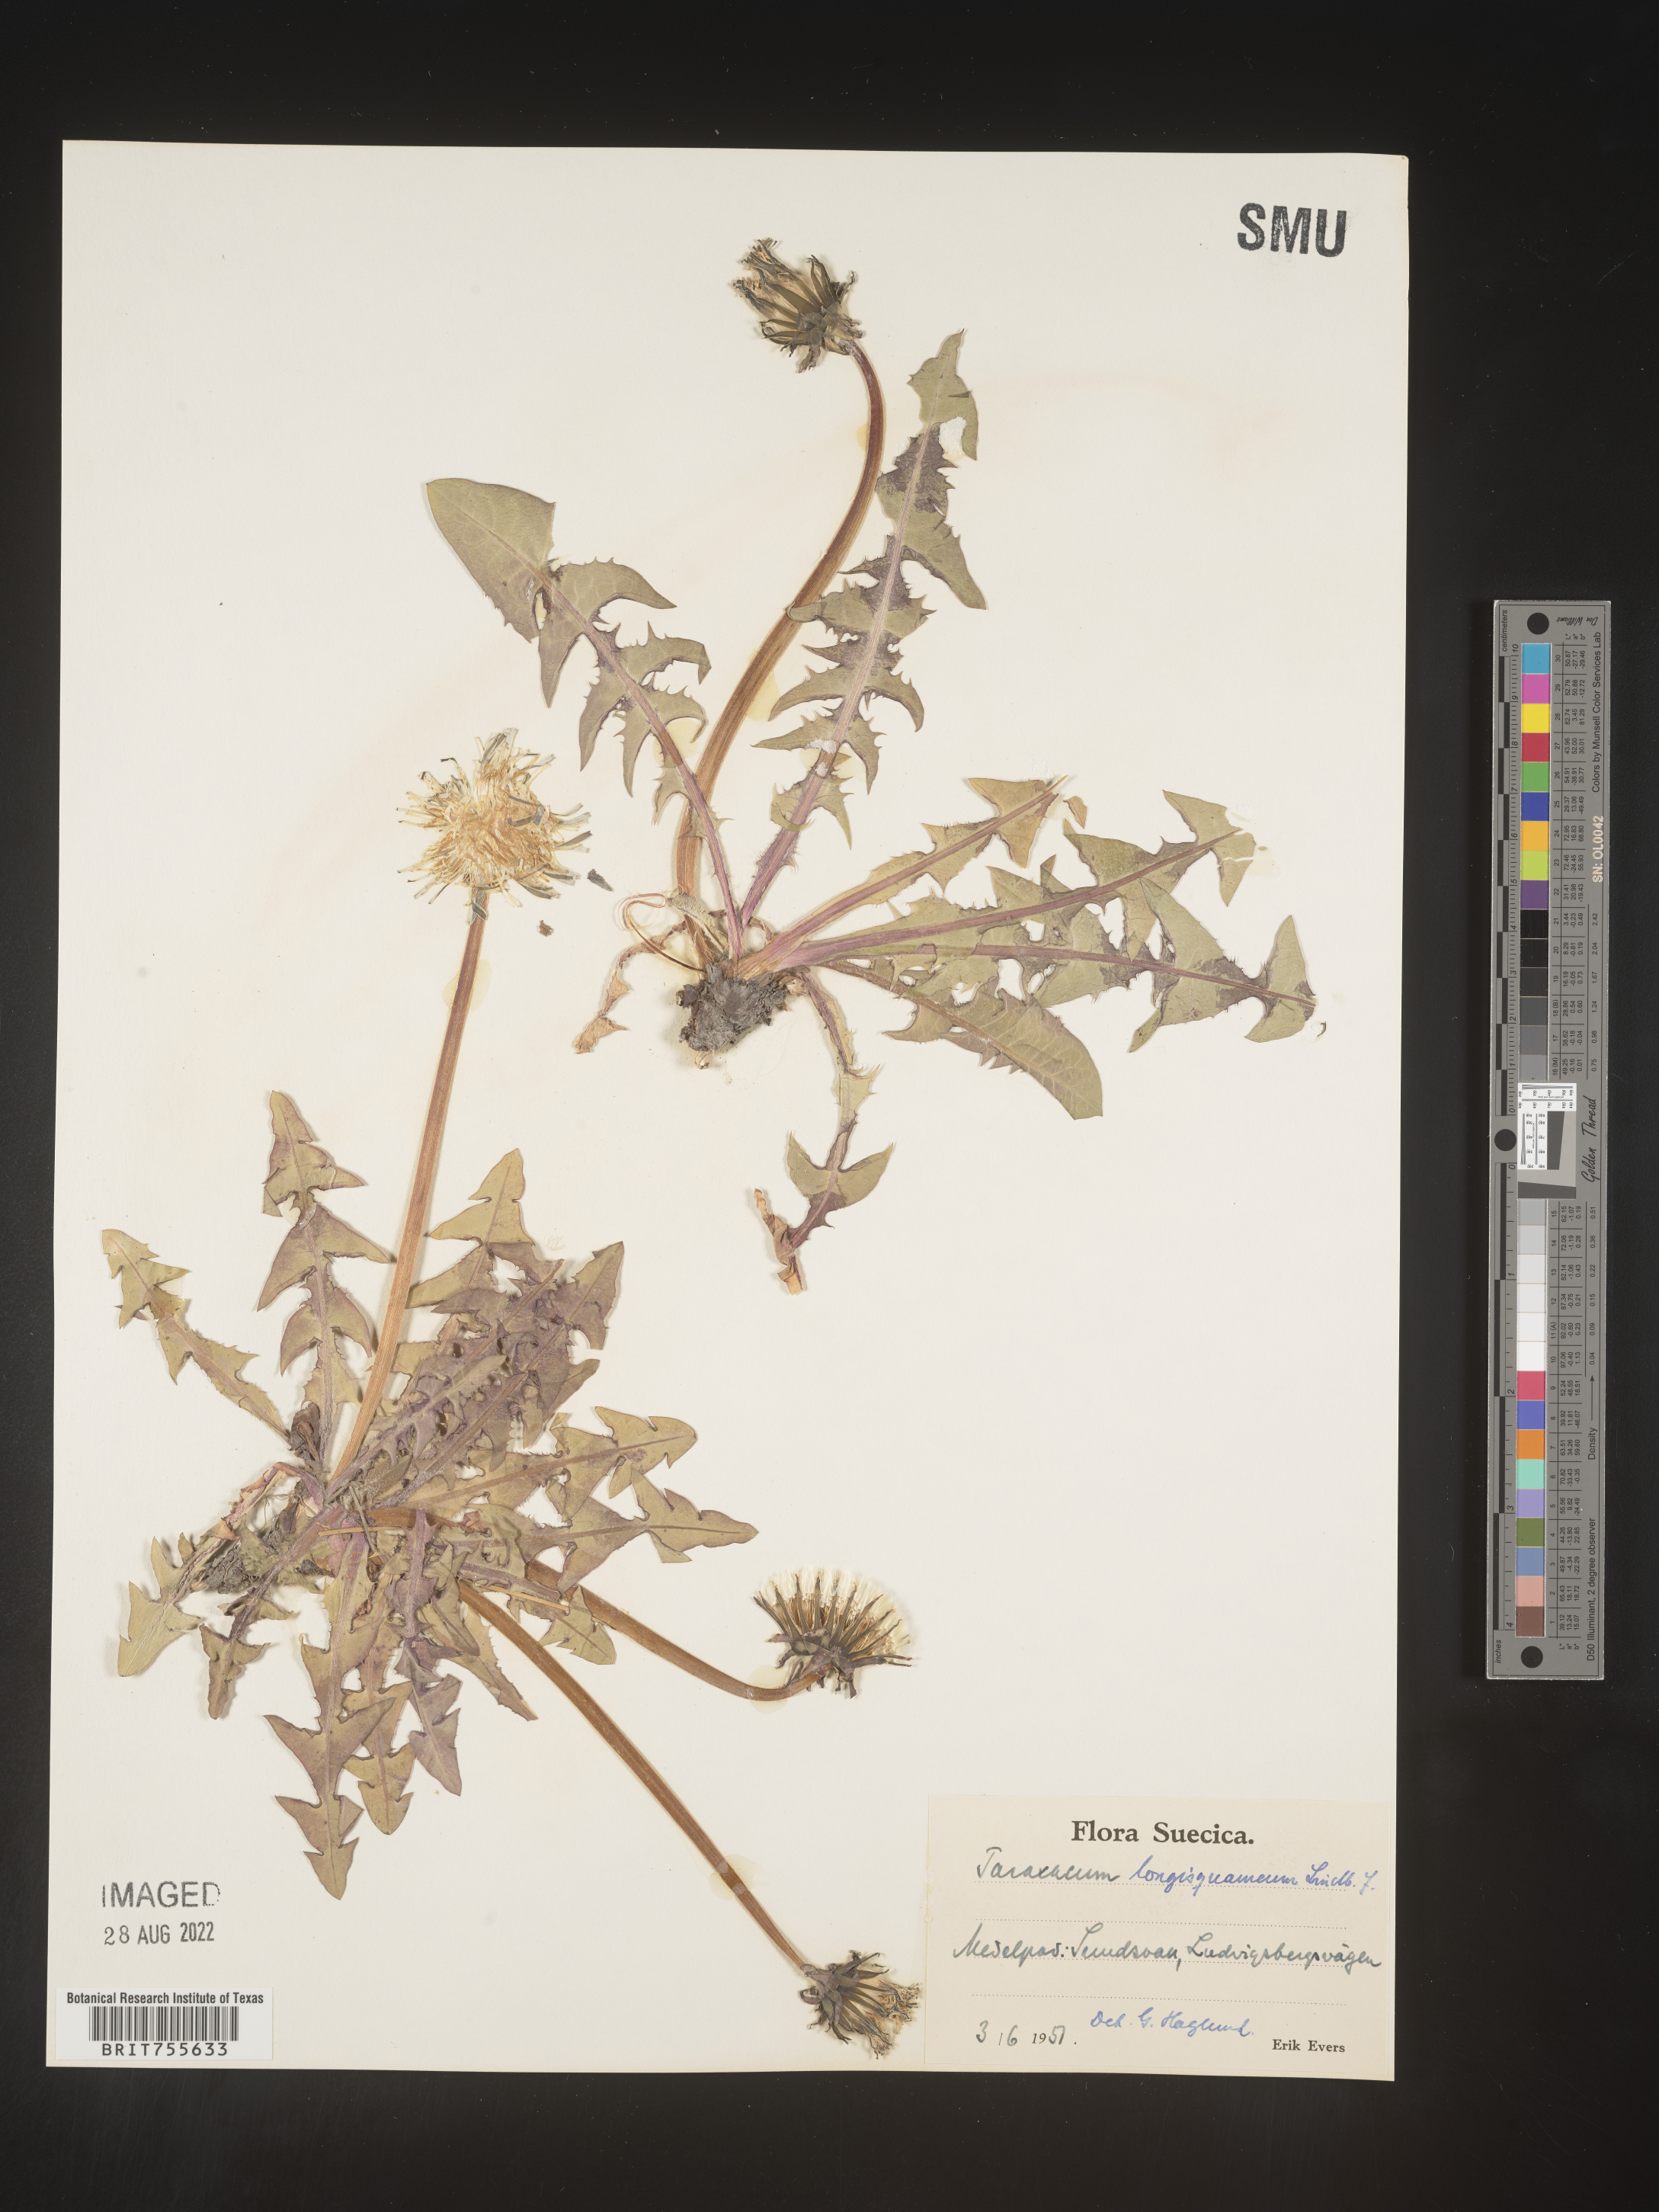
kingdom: Plantae
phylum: Tracheophyta
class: Magnoliopsida
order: Asterales
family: Asteraceae
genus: Taraxacum
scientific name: Taraxacum
